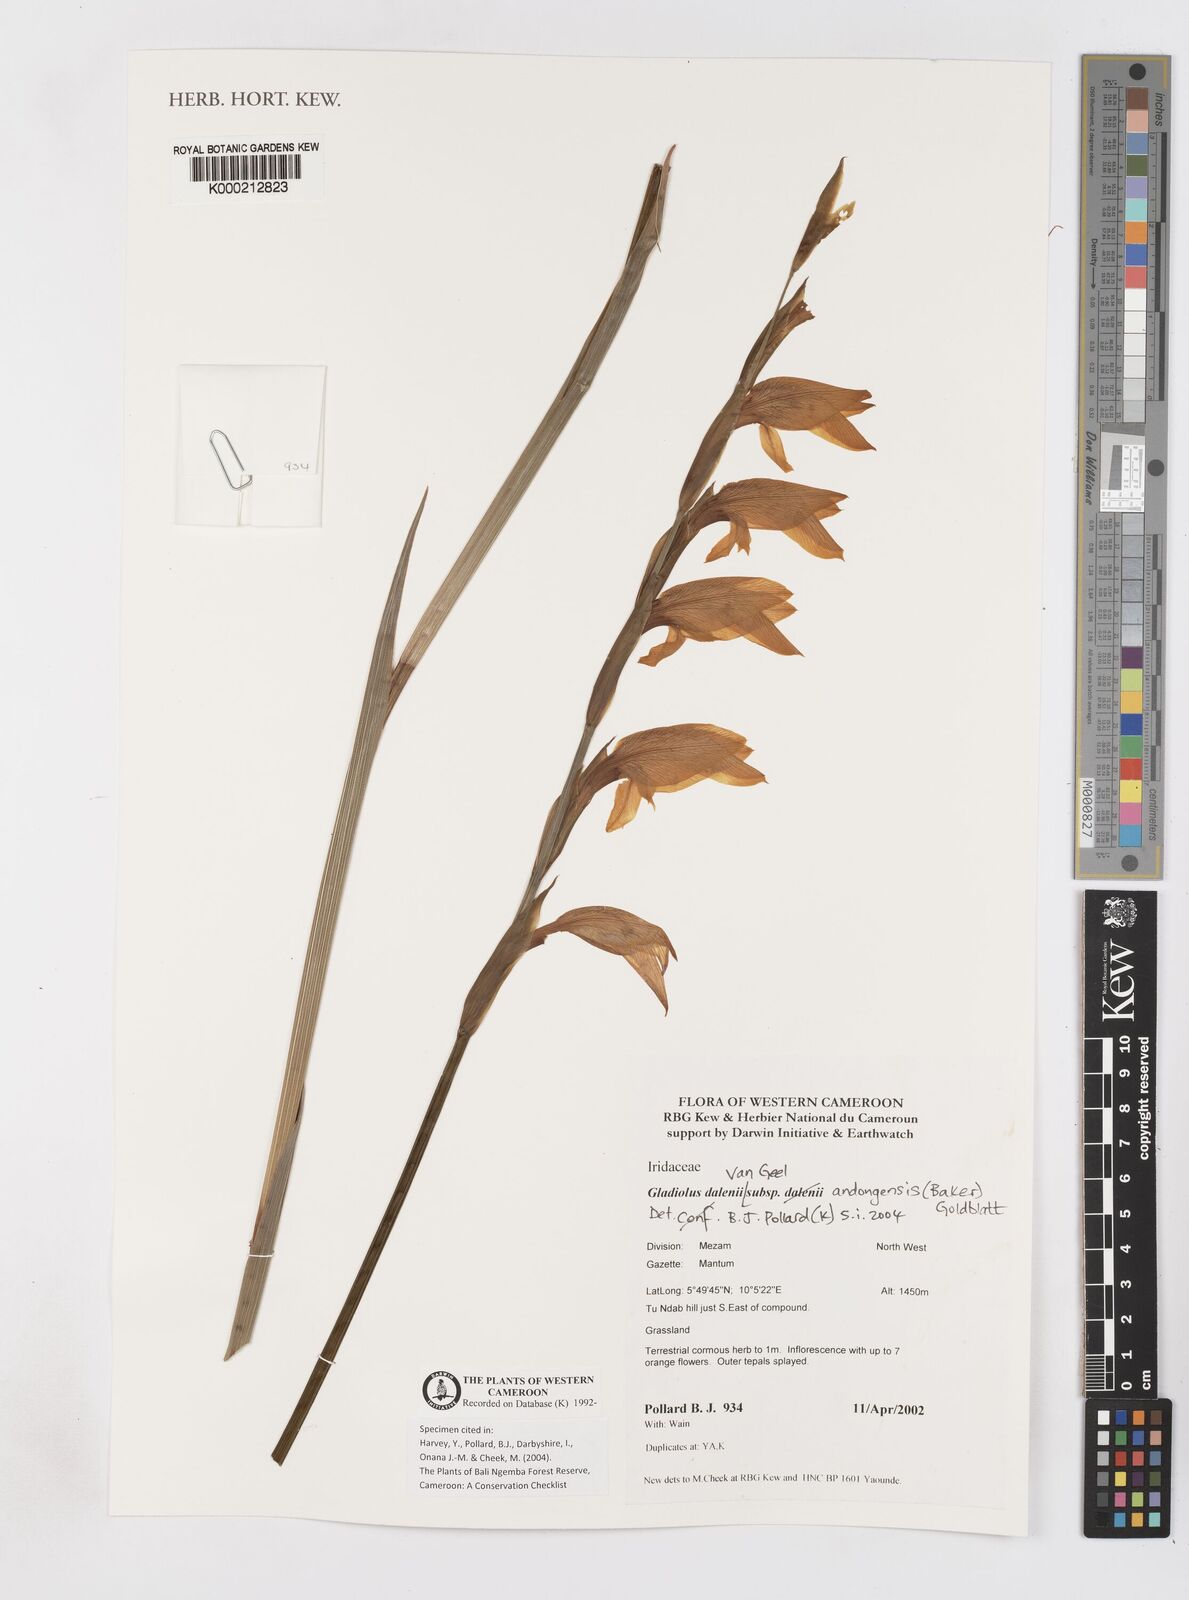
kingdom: Plantae
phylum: Tracheophyta
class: Liliopsida
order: Asparagales
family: Iridaceae
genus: Gladiolus
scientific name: Gladiolus dalenii
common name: Cornflag
